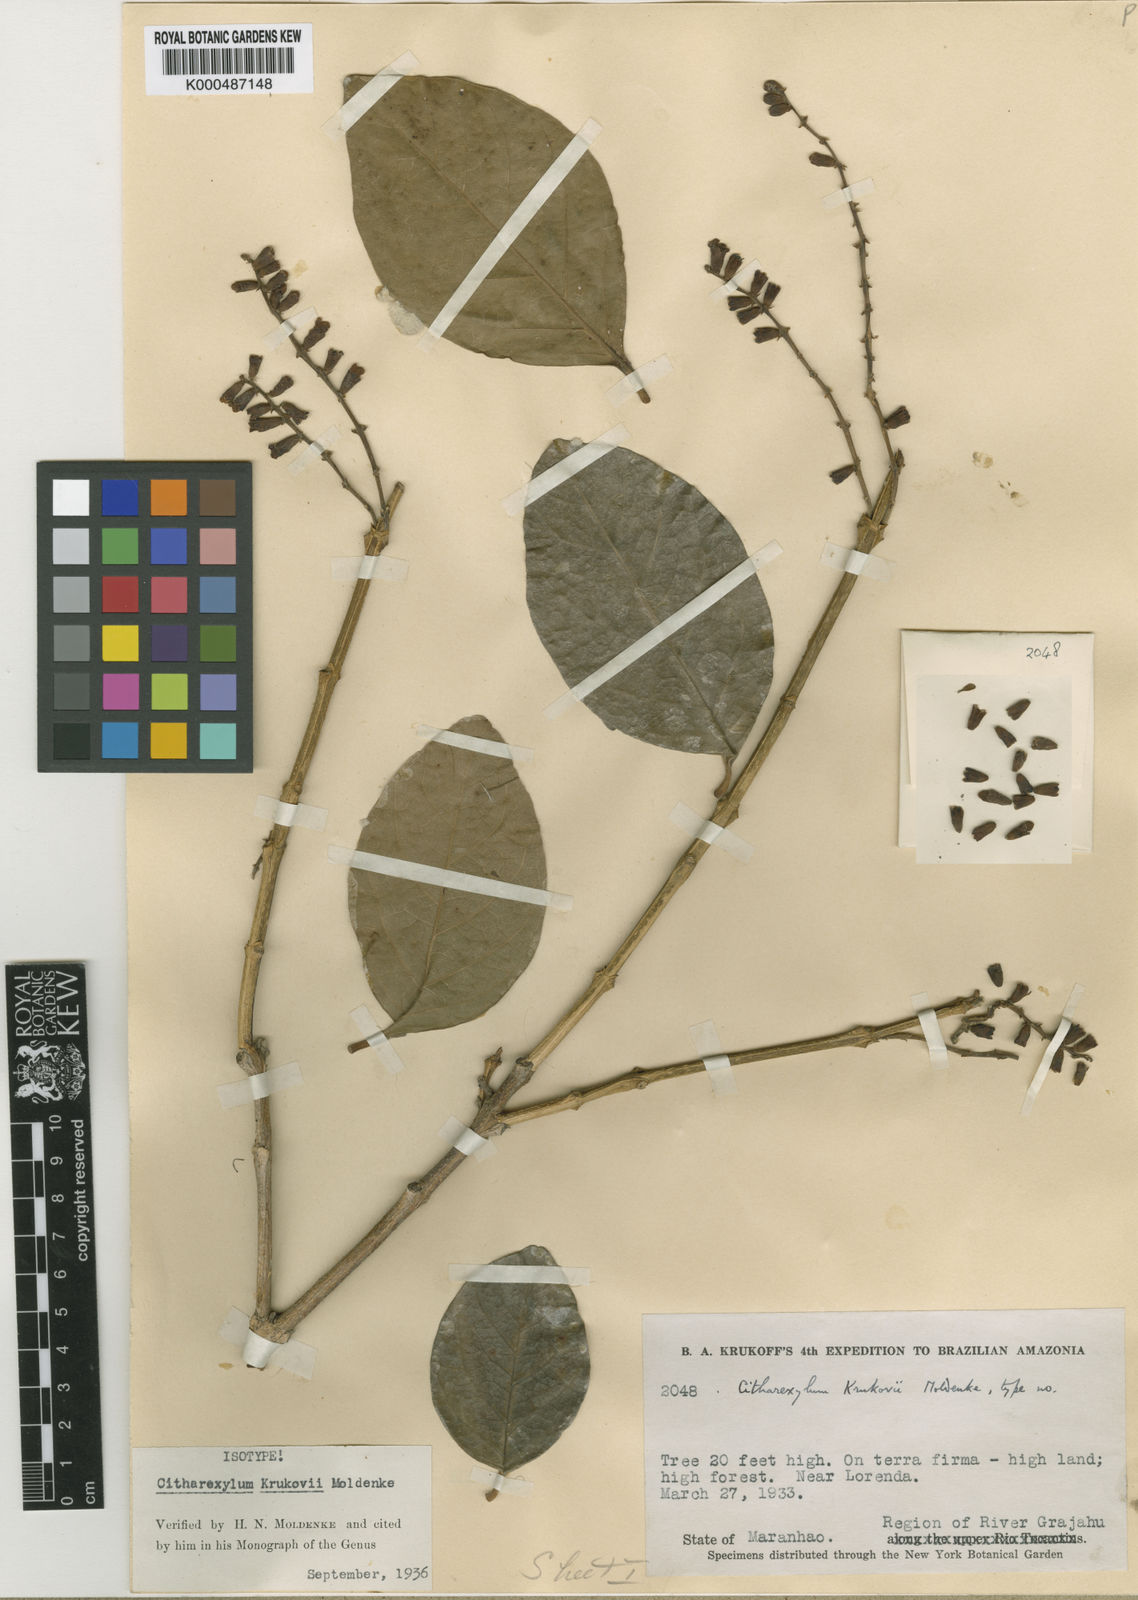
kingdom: Plantae
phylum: Tracheophyta
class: Magnoliopsida
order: Lamiales
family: Verbenaceae
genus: Citharexylum
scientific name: Citharexylum poeppigii
